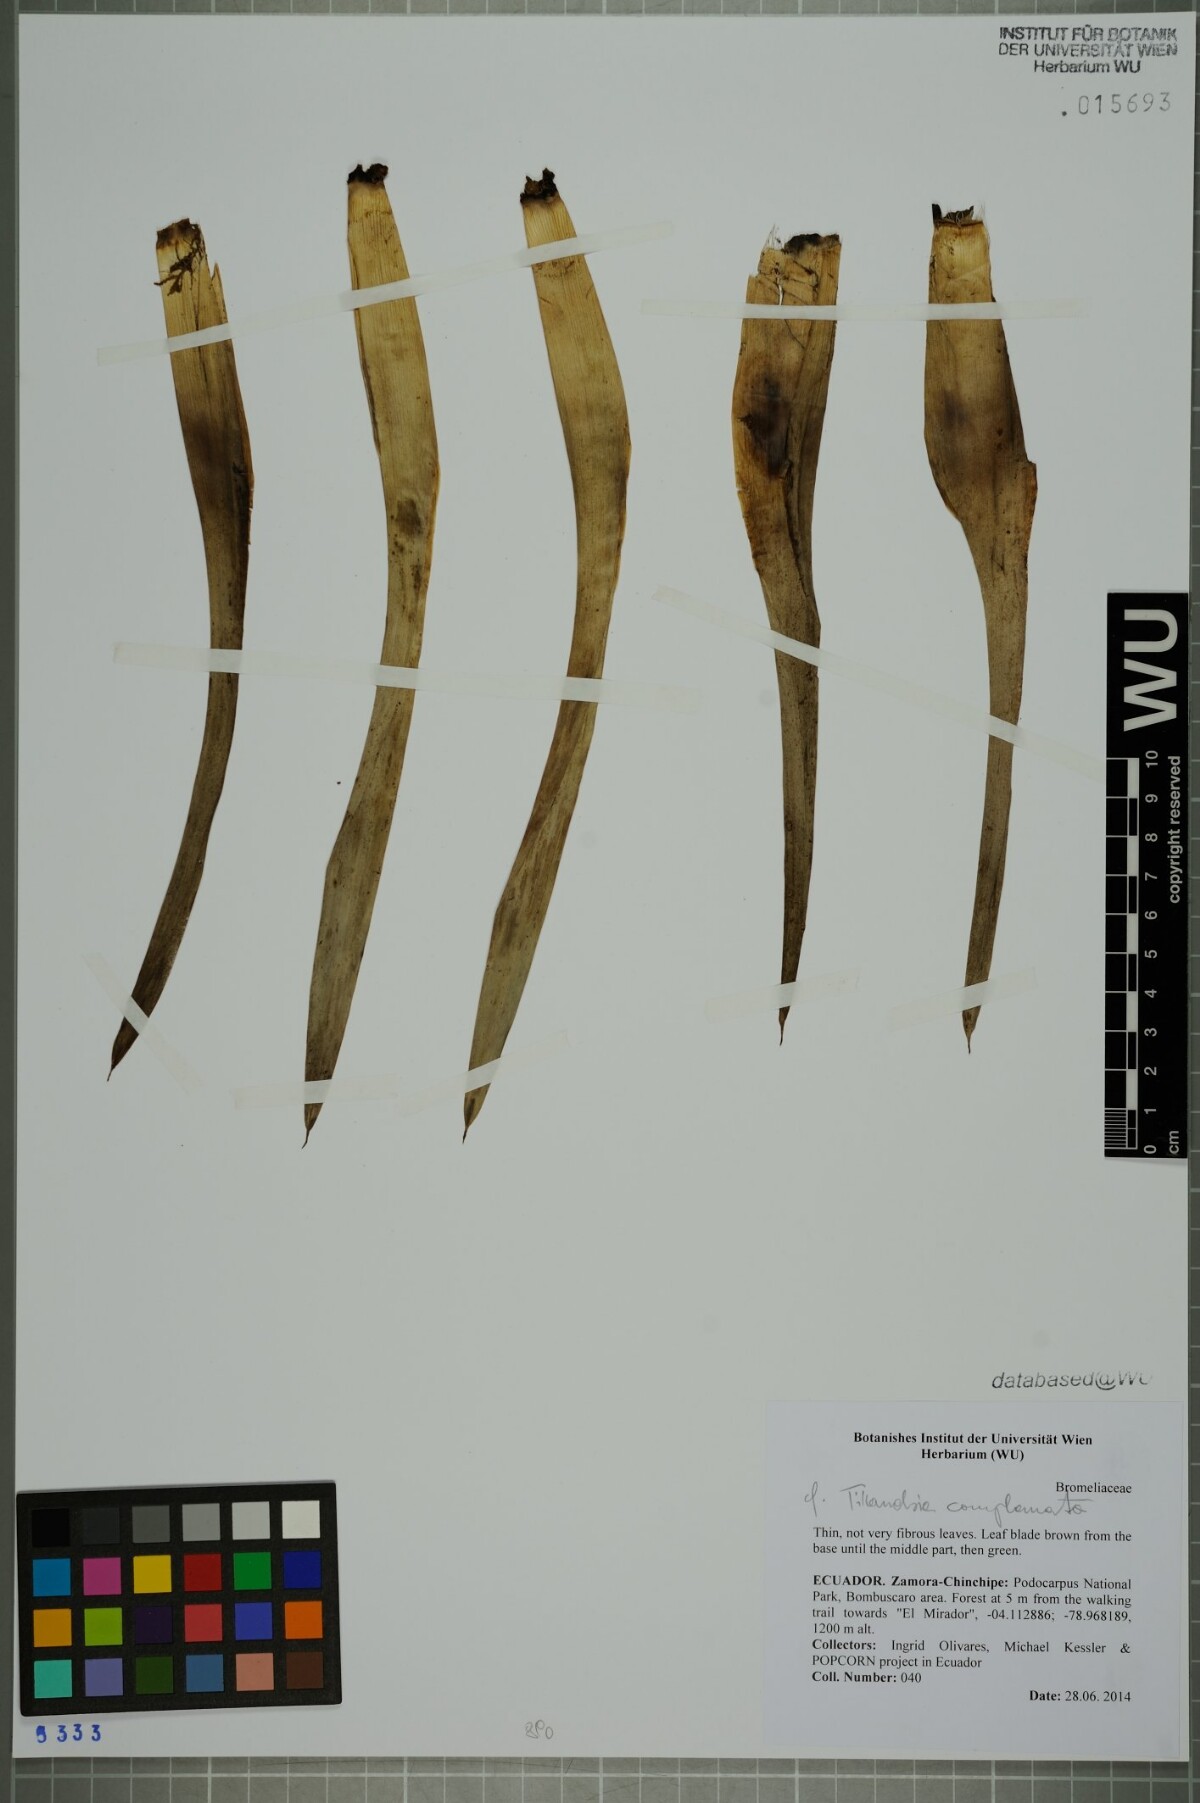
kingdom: Plantae
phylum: Tracheophyta
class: Liliopsida
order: Poales
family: Bromeliaceae
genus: Tillandsia
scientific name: Tillandsia complanata
